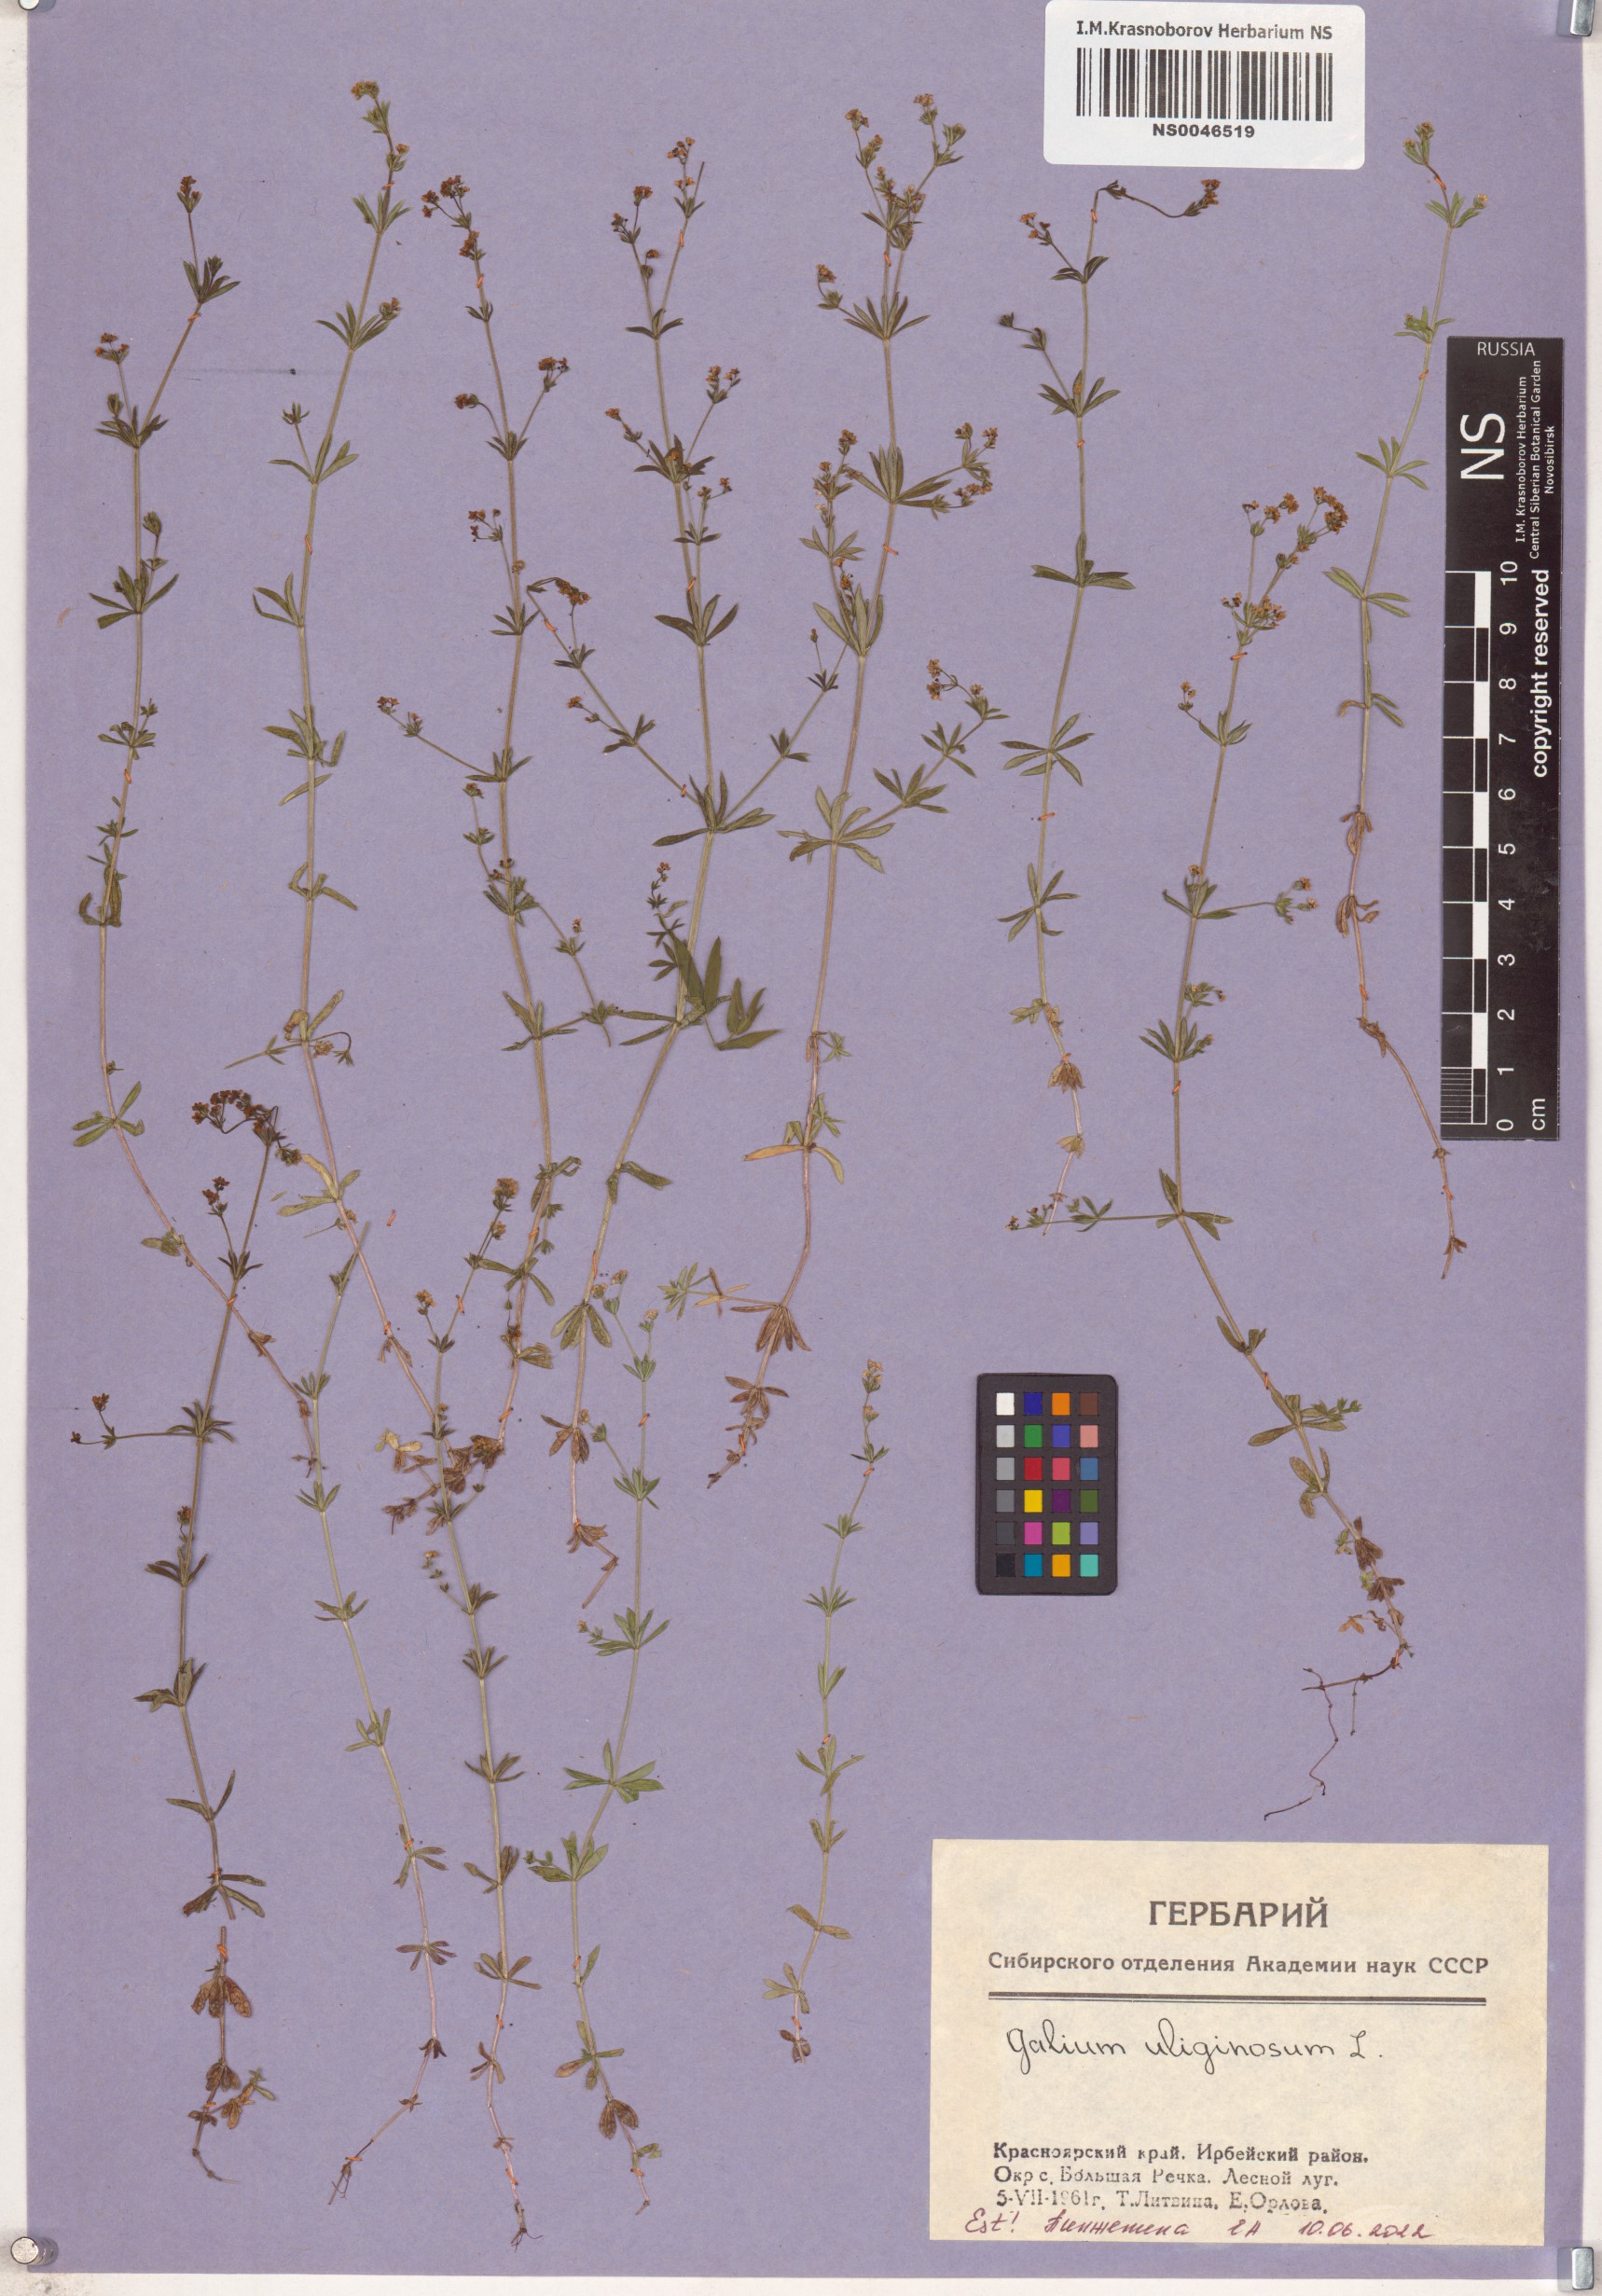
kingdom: Plantae
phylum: Tracheophyta
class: Magnoliopsida
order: Gentianales
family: Rubiaceae
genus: Galium
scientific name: Galium uliginosum
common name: Fen bedstraw
